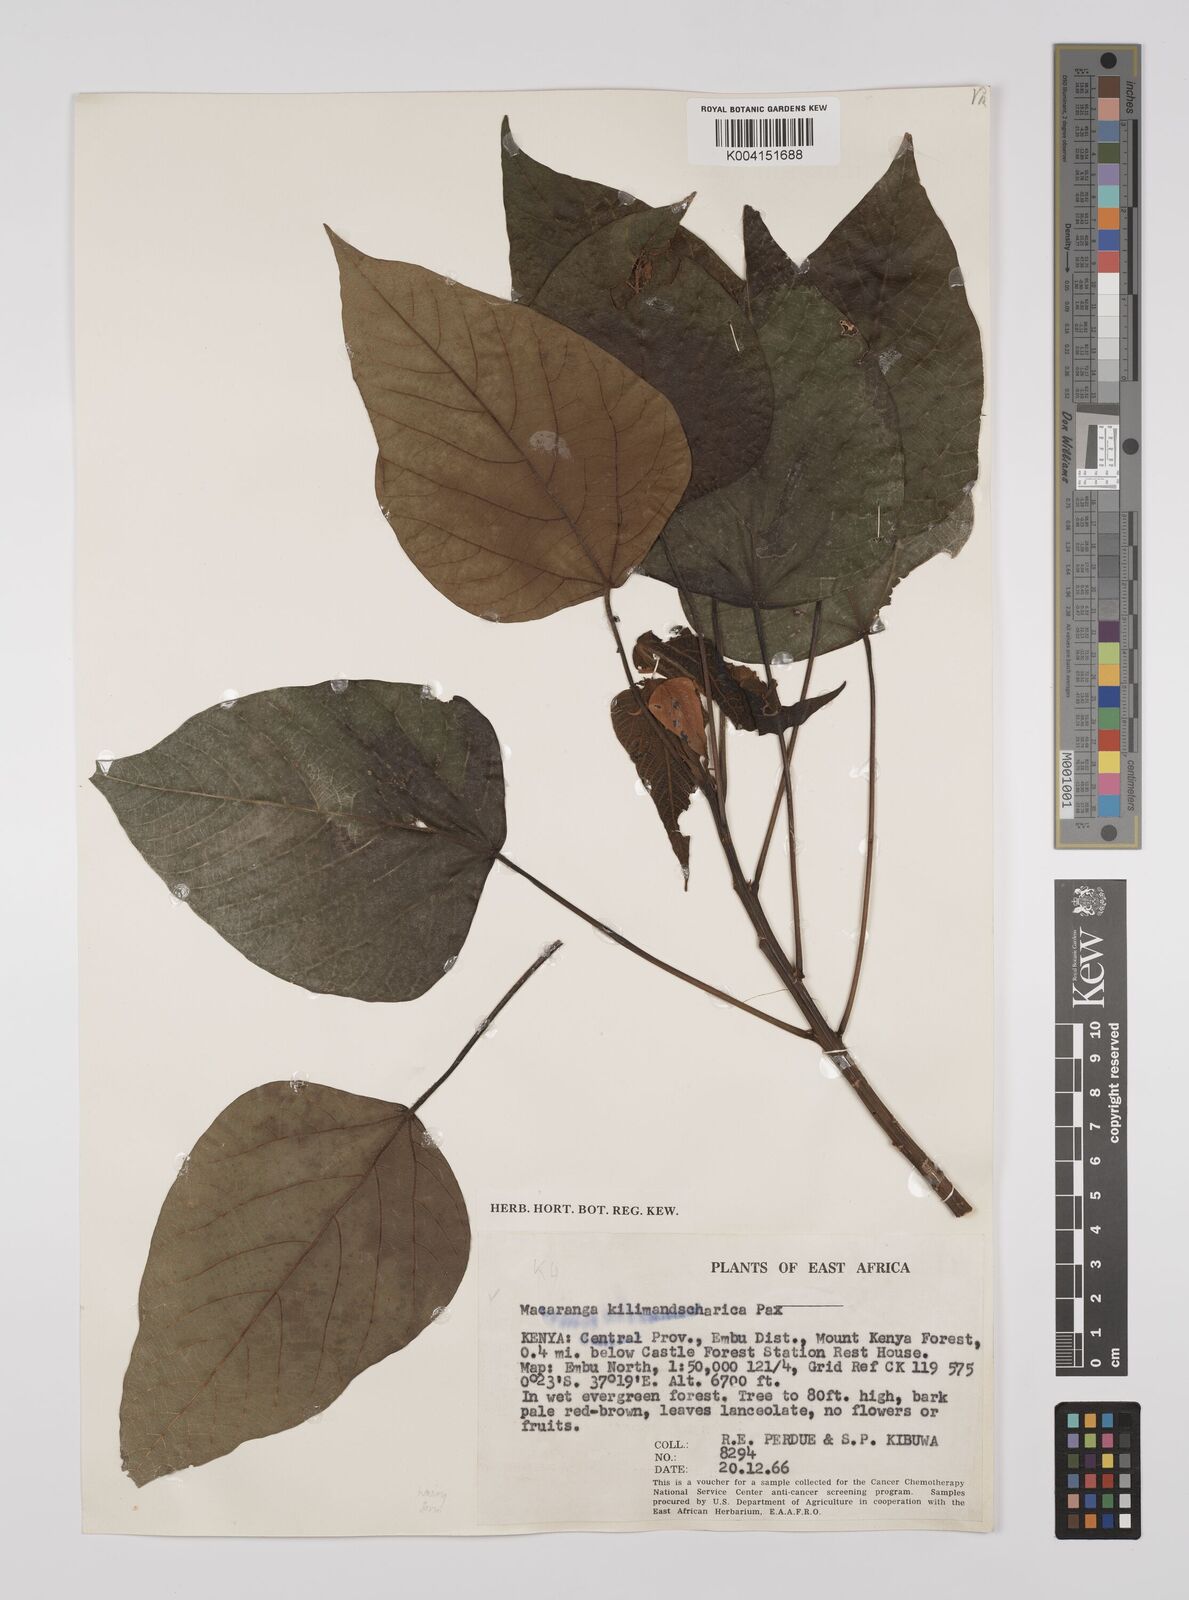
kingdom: Plantae
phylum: Tracheophyta
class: Magnoliopsida
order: Malpighiales
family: Euphorbiaceae
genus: Macaranga
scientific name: Macaranga
